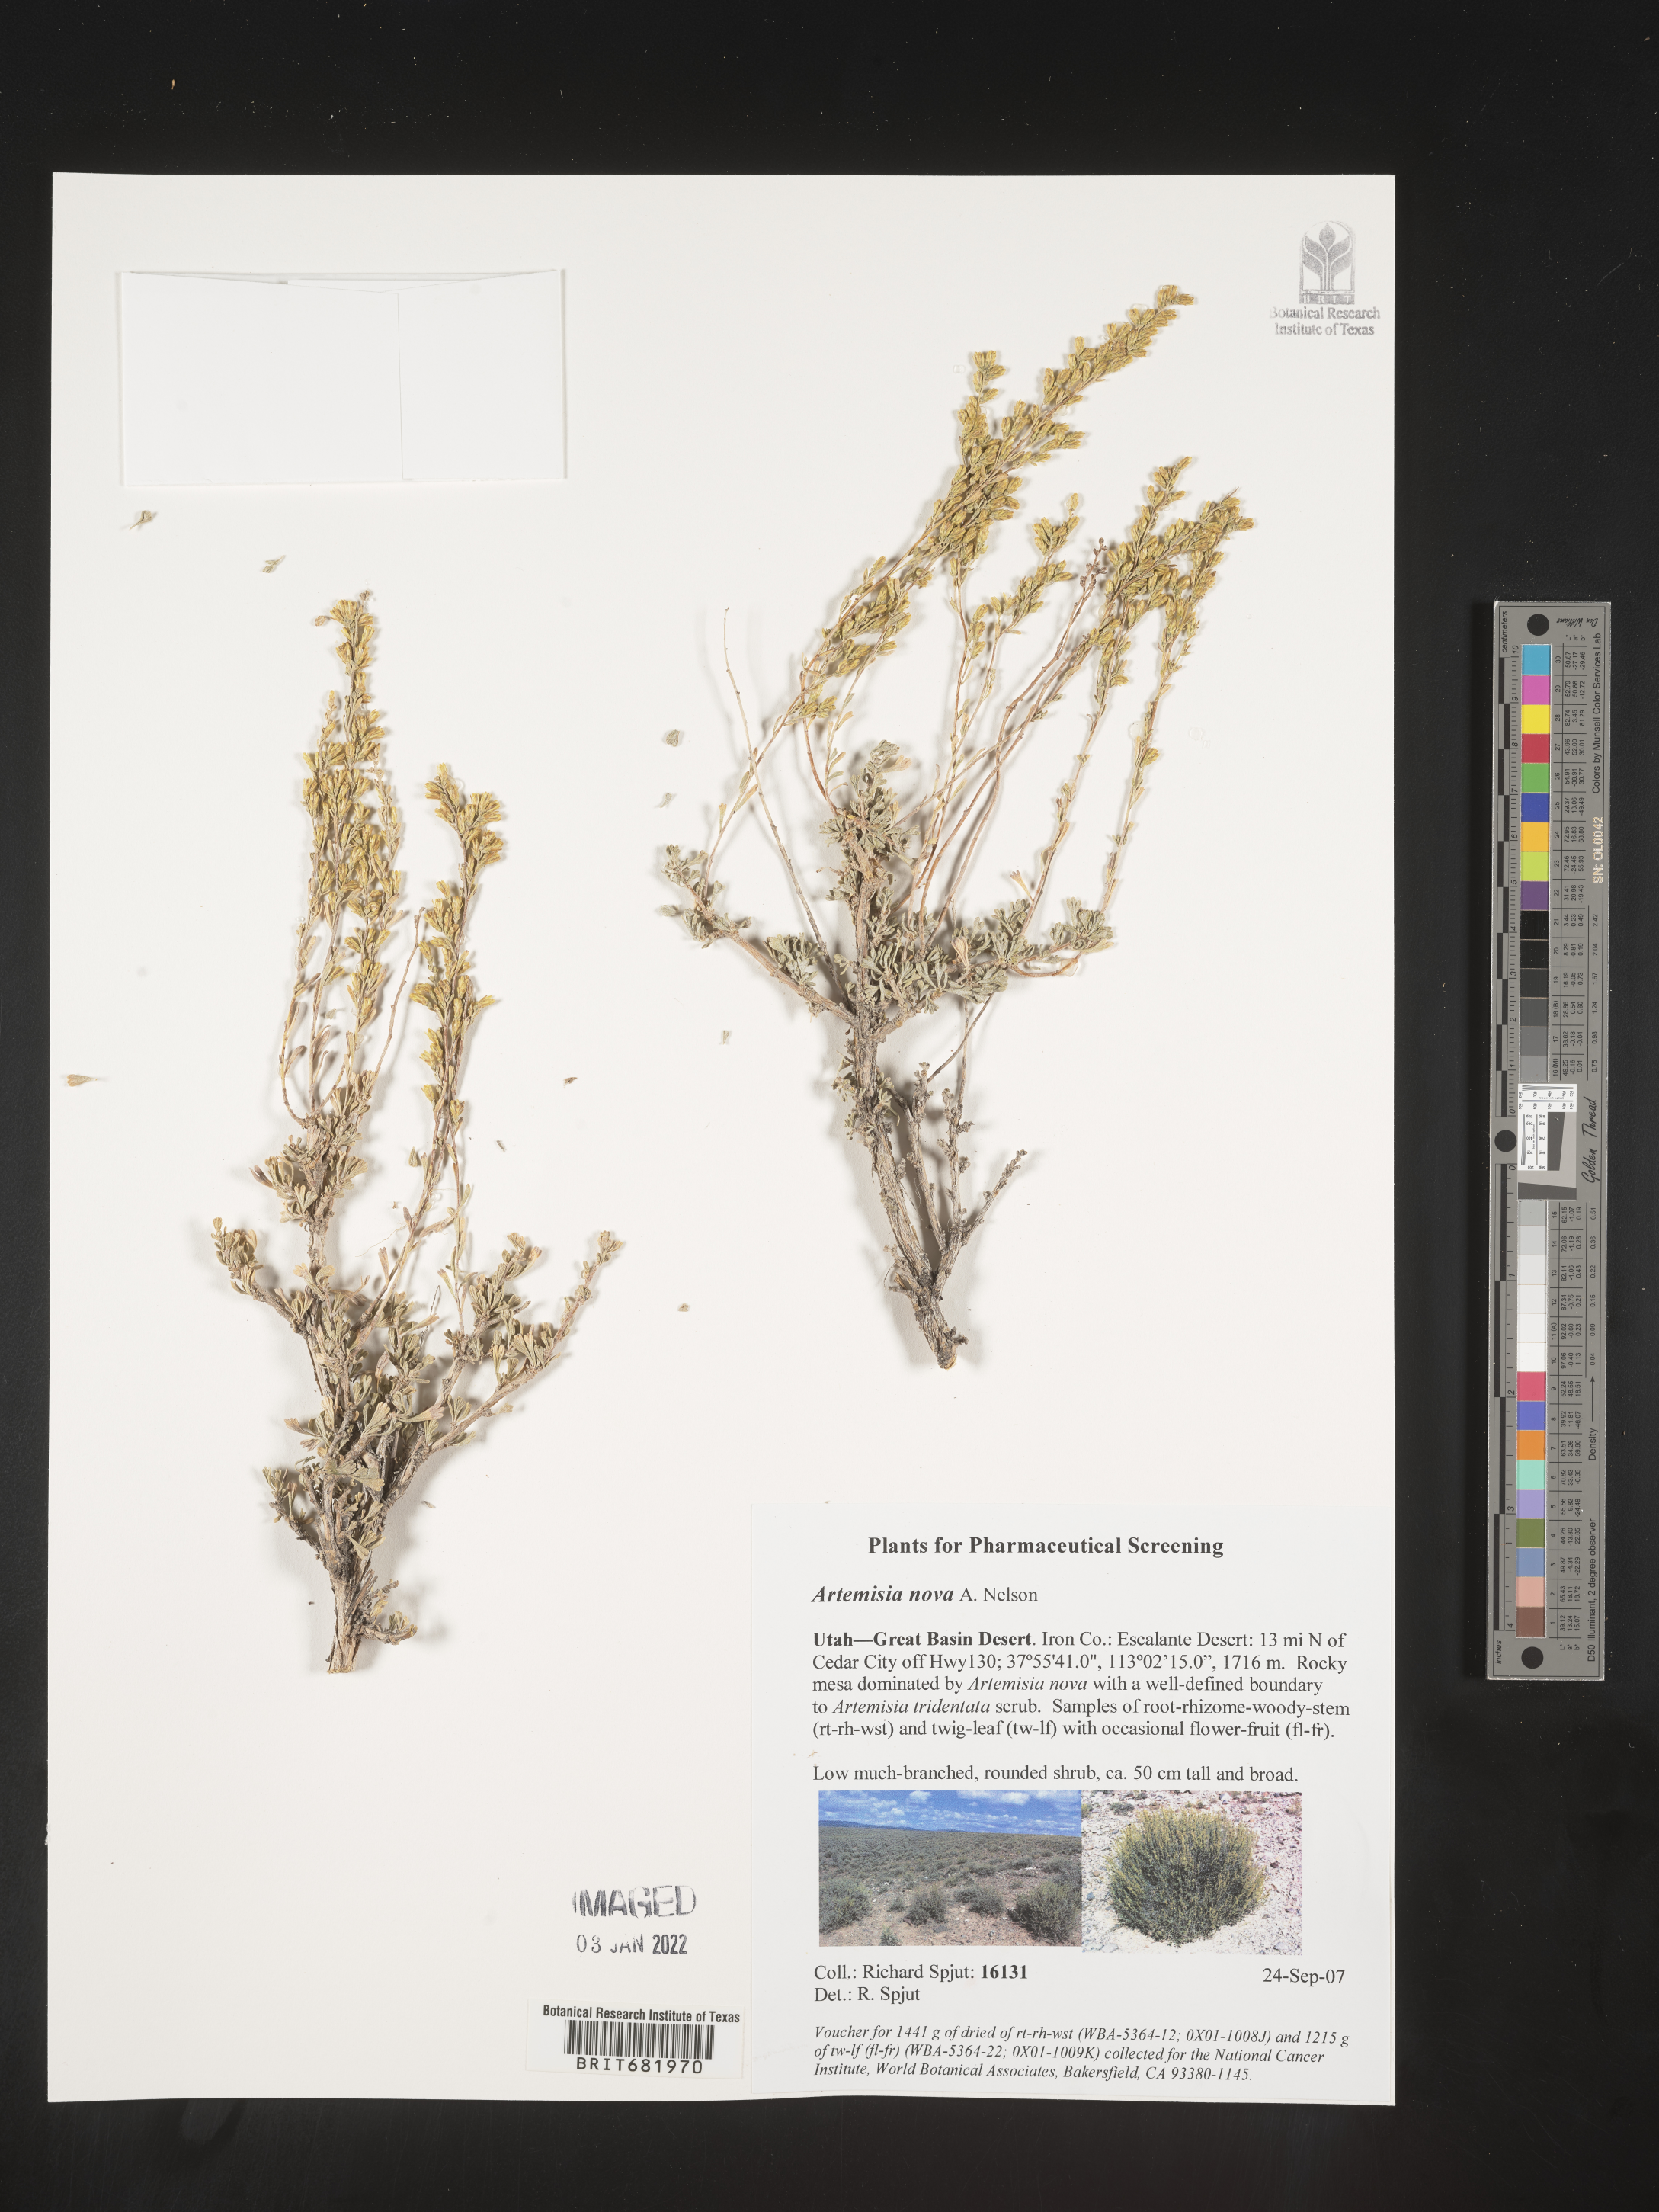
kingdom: Plantae
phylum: Tracheophyta
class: Magnoliopsida
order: Asterales
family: Asteraceae
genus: Artemisia
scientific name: Artemisia nova
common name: Black-sage
